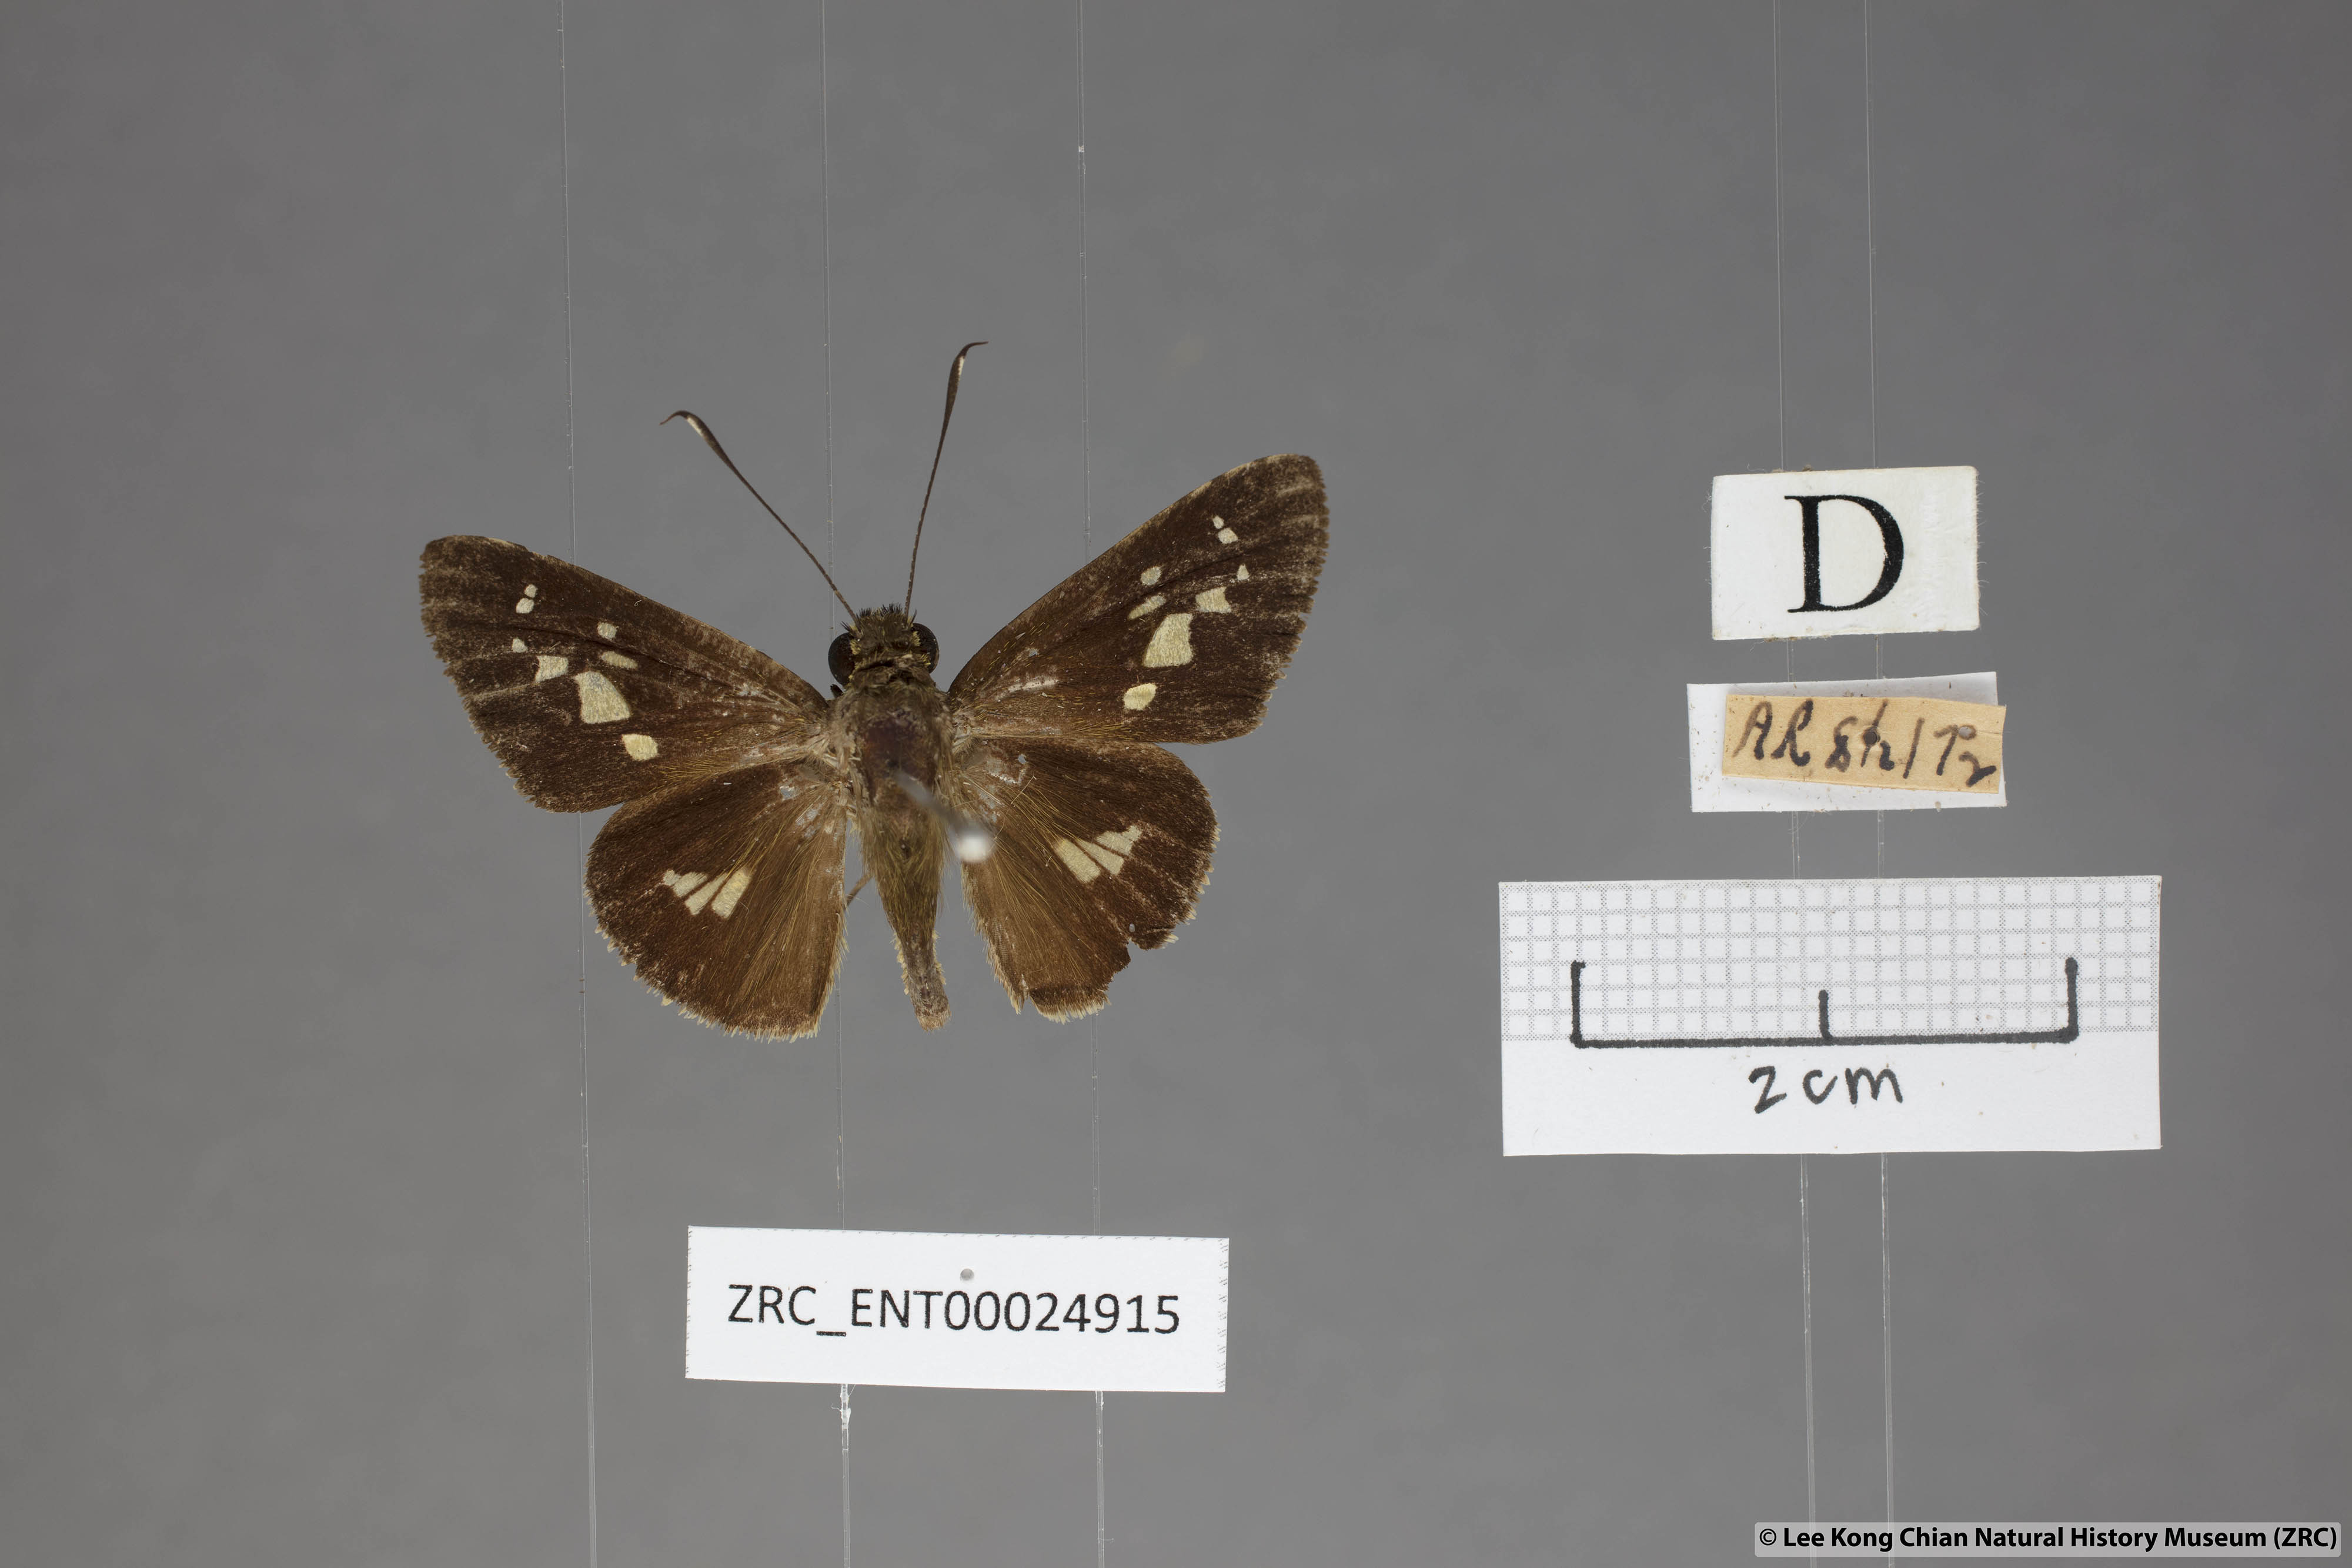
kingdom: Animalia
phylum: Arthropoda
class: Insecta
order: Lepidoptera
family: Hesperiidae
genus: Isma
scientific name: Isma umbrosa
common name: Large long-banded flitter
